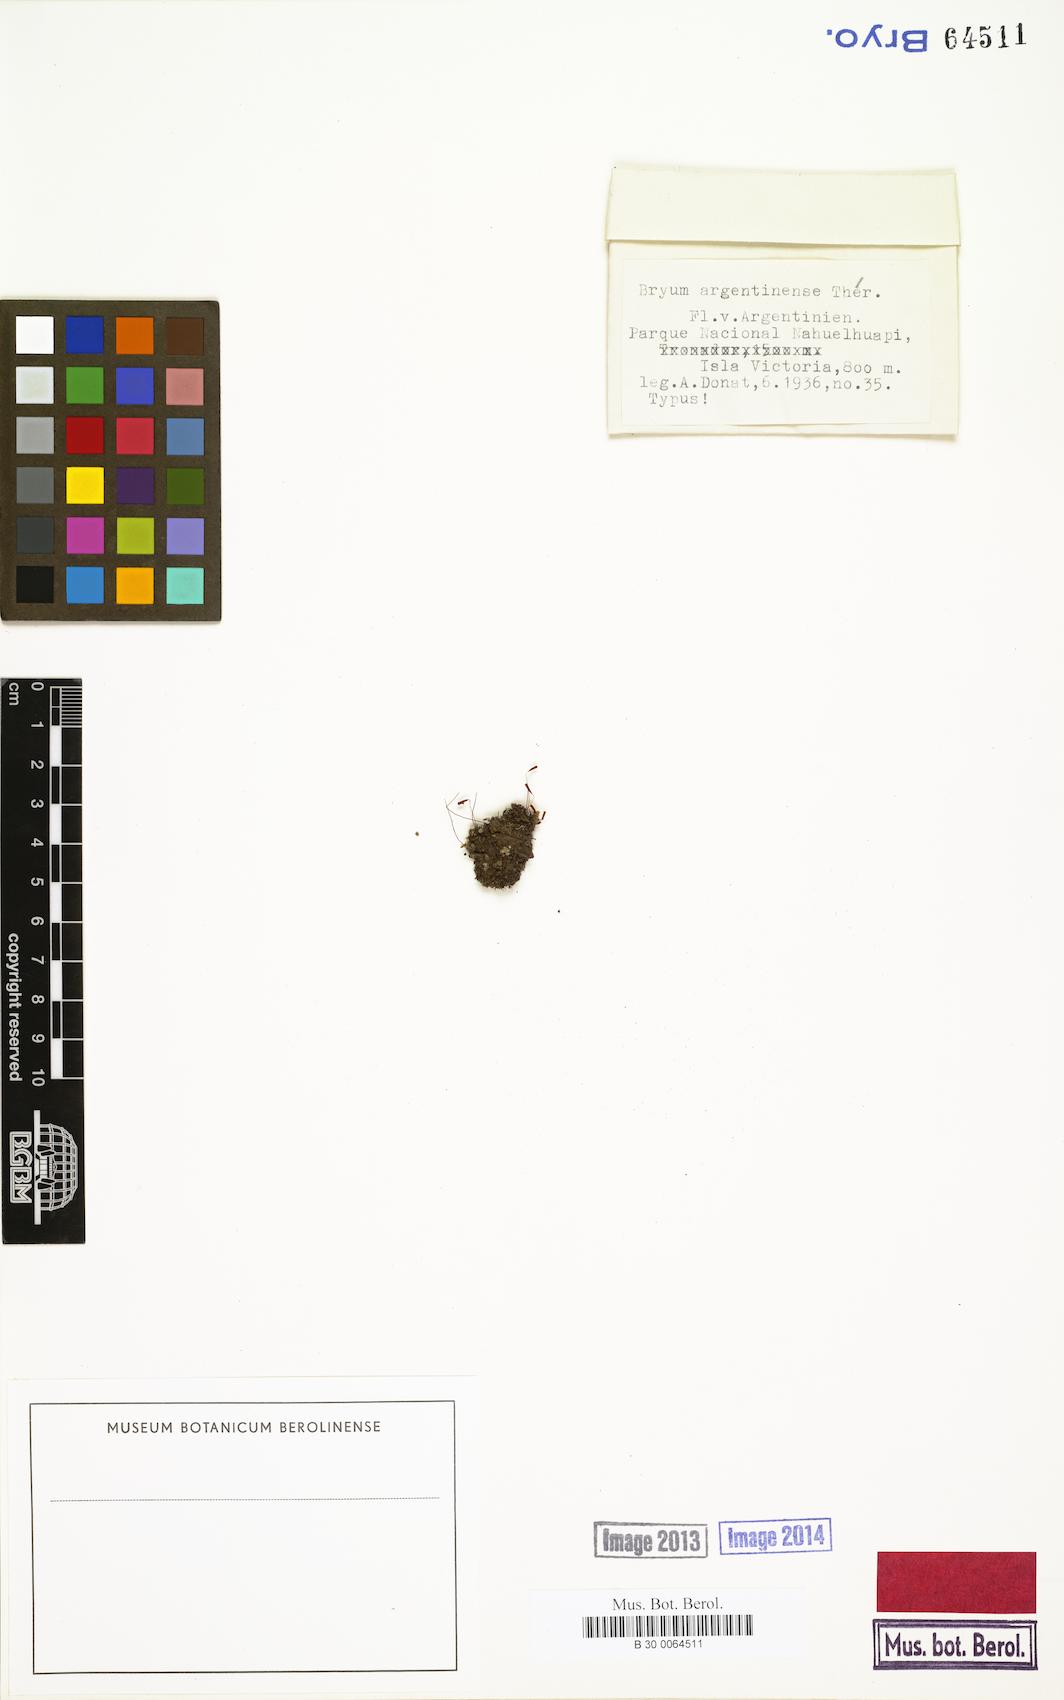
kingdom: Plantae
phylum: Bryophyta
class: Bryopsida
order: Bryales
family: Bryaceae
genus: Bryum
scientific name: Bryum
